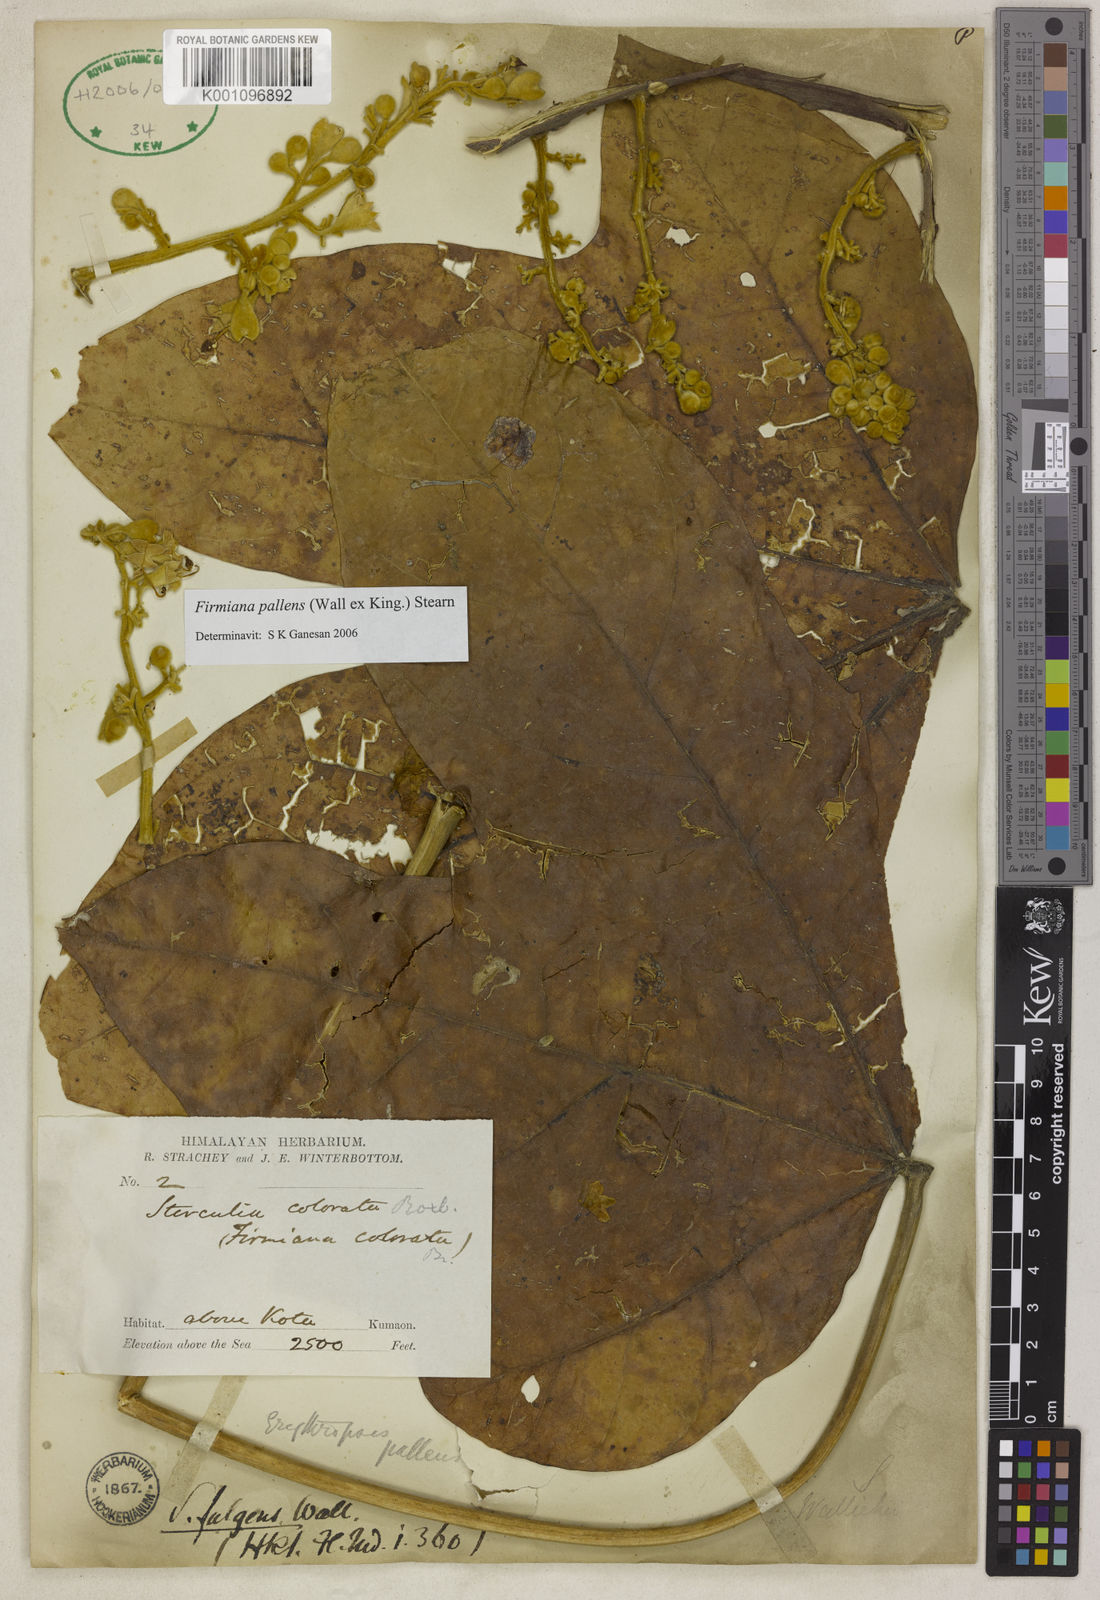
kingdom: Plantae
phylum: Tracheophyta
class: Magnoliopsida
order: Malvales
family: Malvaceae
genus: Firmiana
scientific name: Firmiana fulgens
